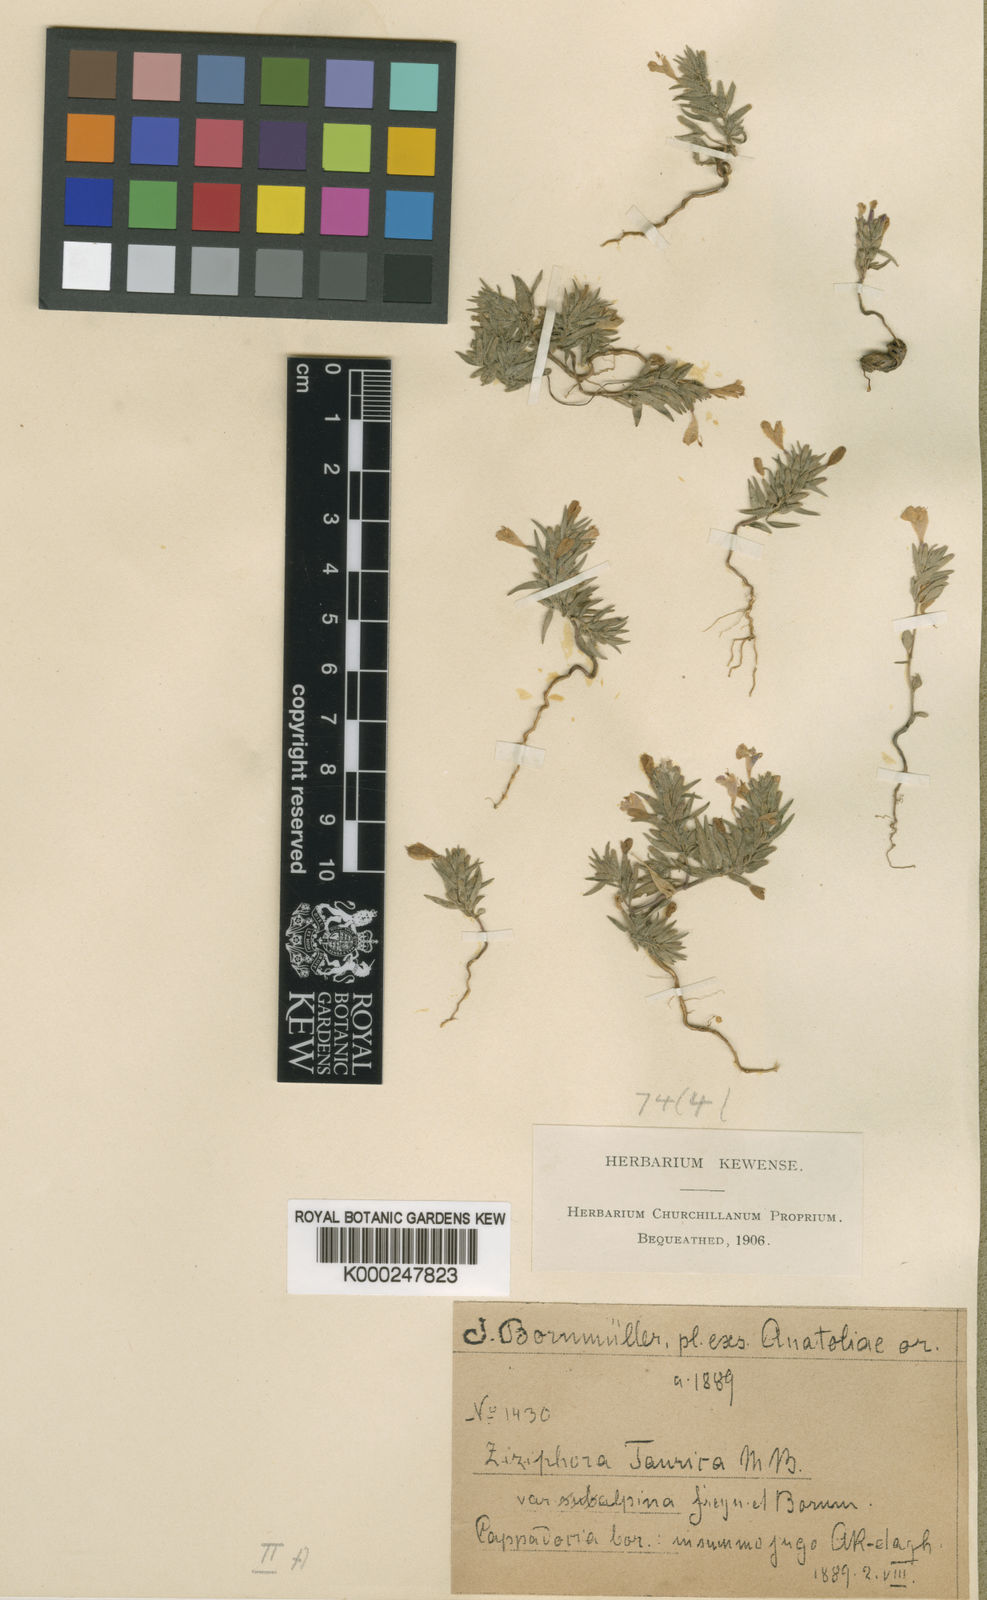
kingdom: Plantae
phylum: Tracheophyta
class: Magnoliopsida
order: Lamiales
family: Lamiaceae
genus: Ziziphora
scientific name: Ziziphora taurica
